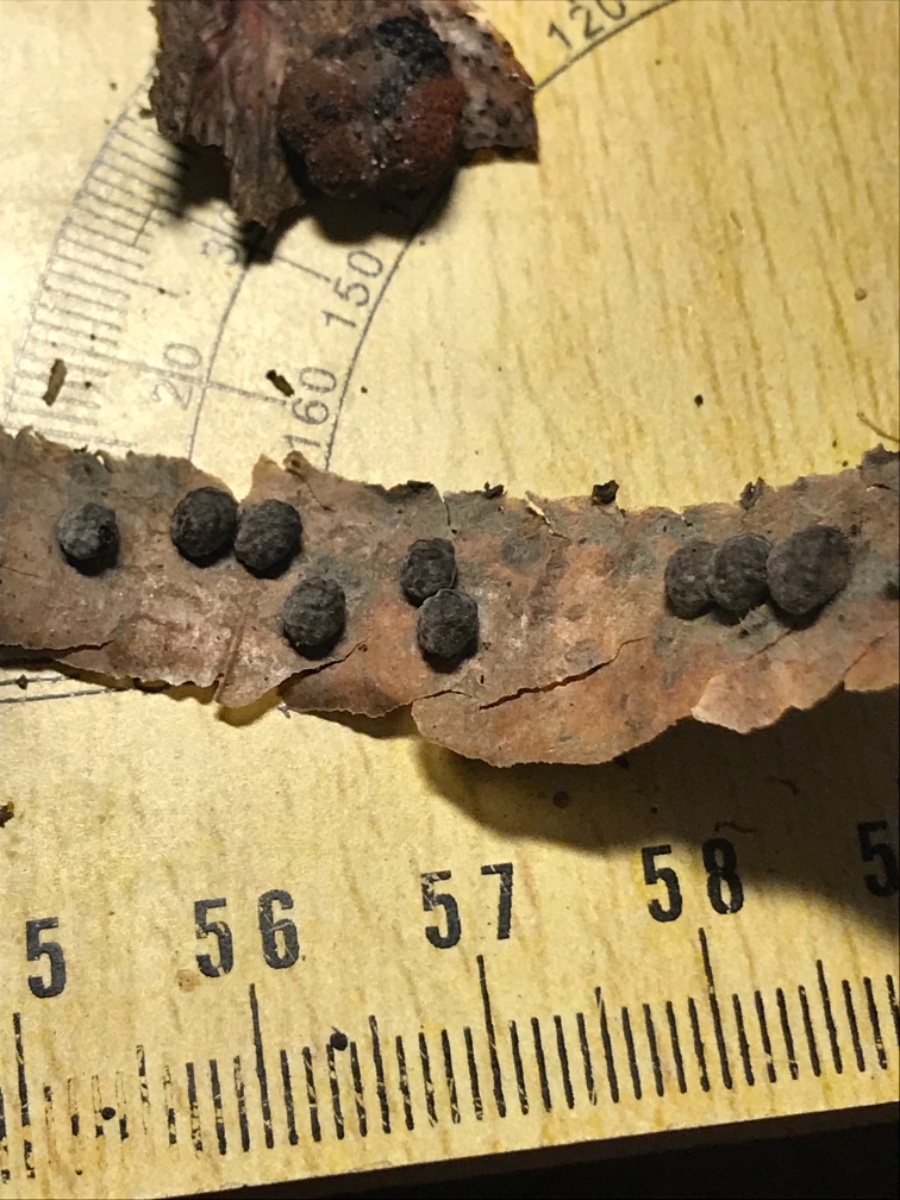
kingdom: Fungi
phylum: Ascomycota
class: Sordariomycetes
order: Xylariales
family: Hypoxylaceae
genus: Hypoxylon
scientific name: Hypoxylon fragiforme
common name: kuljordbær
